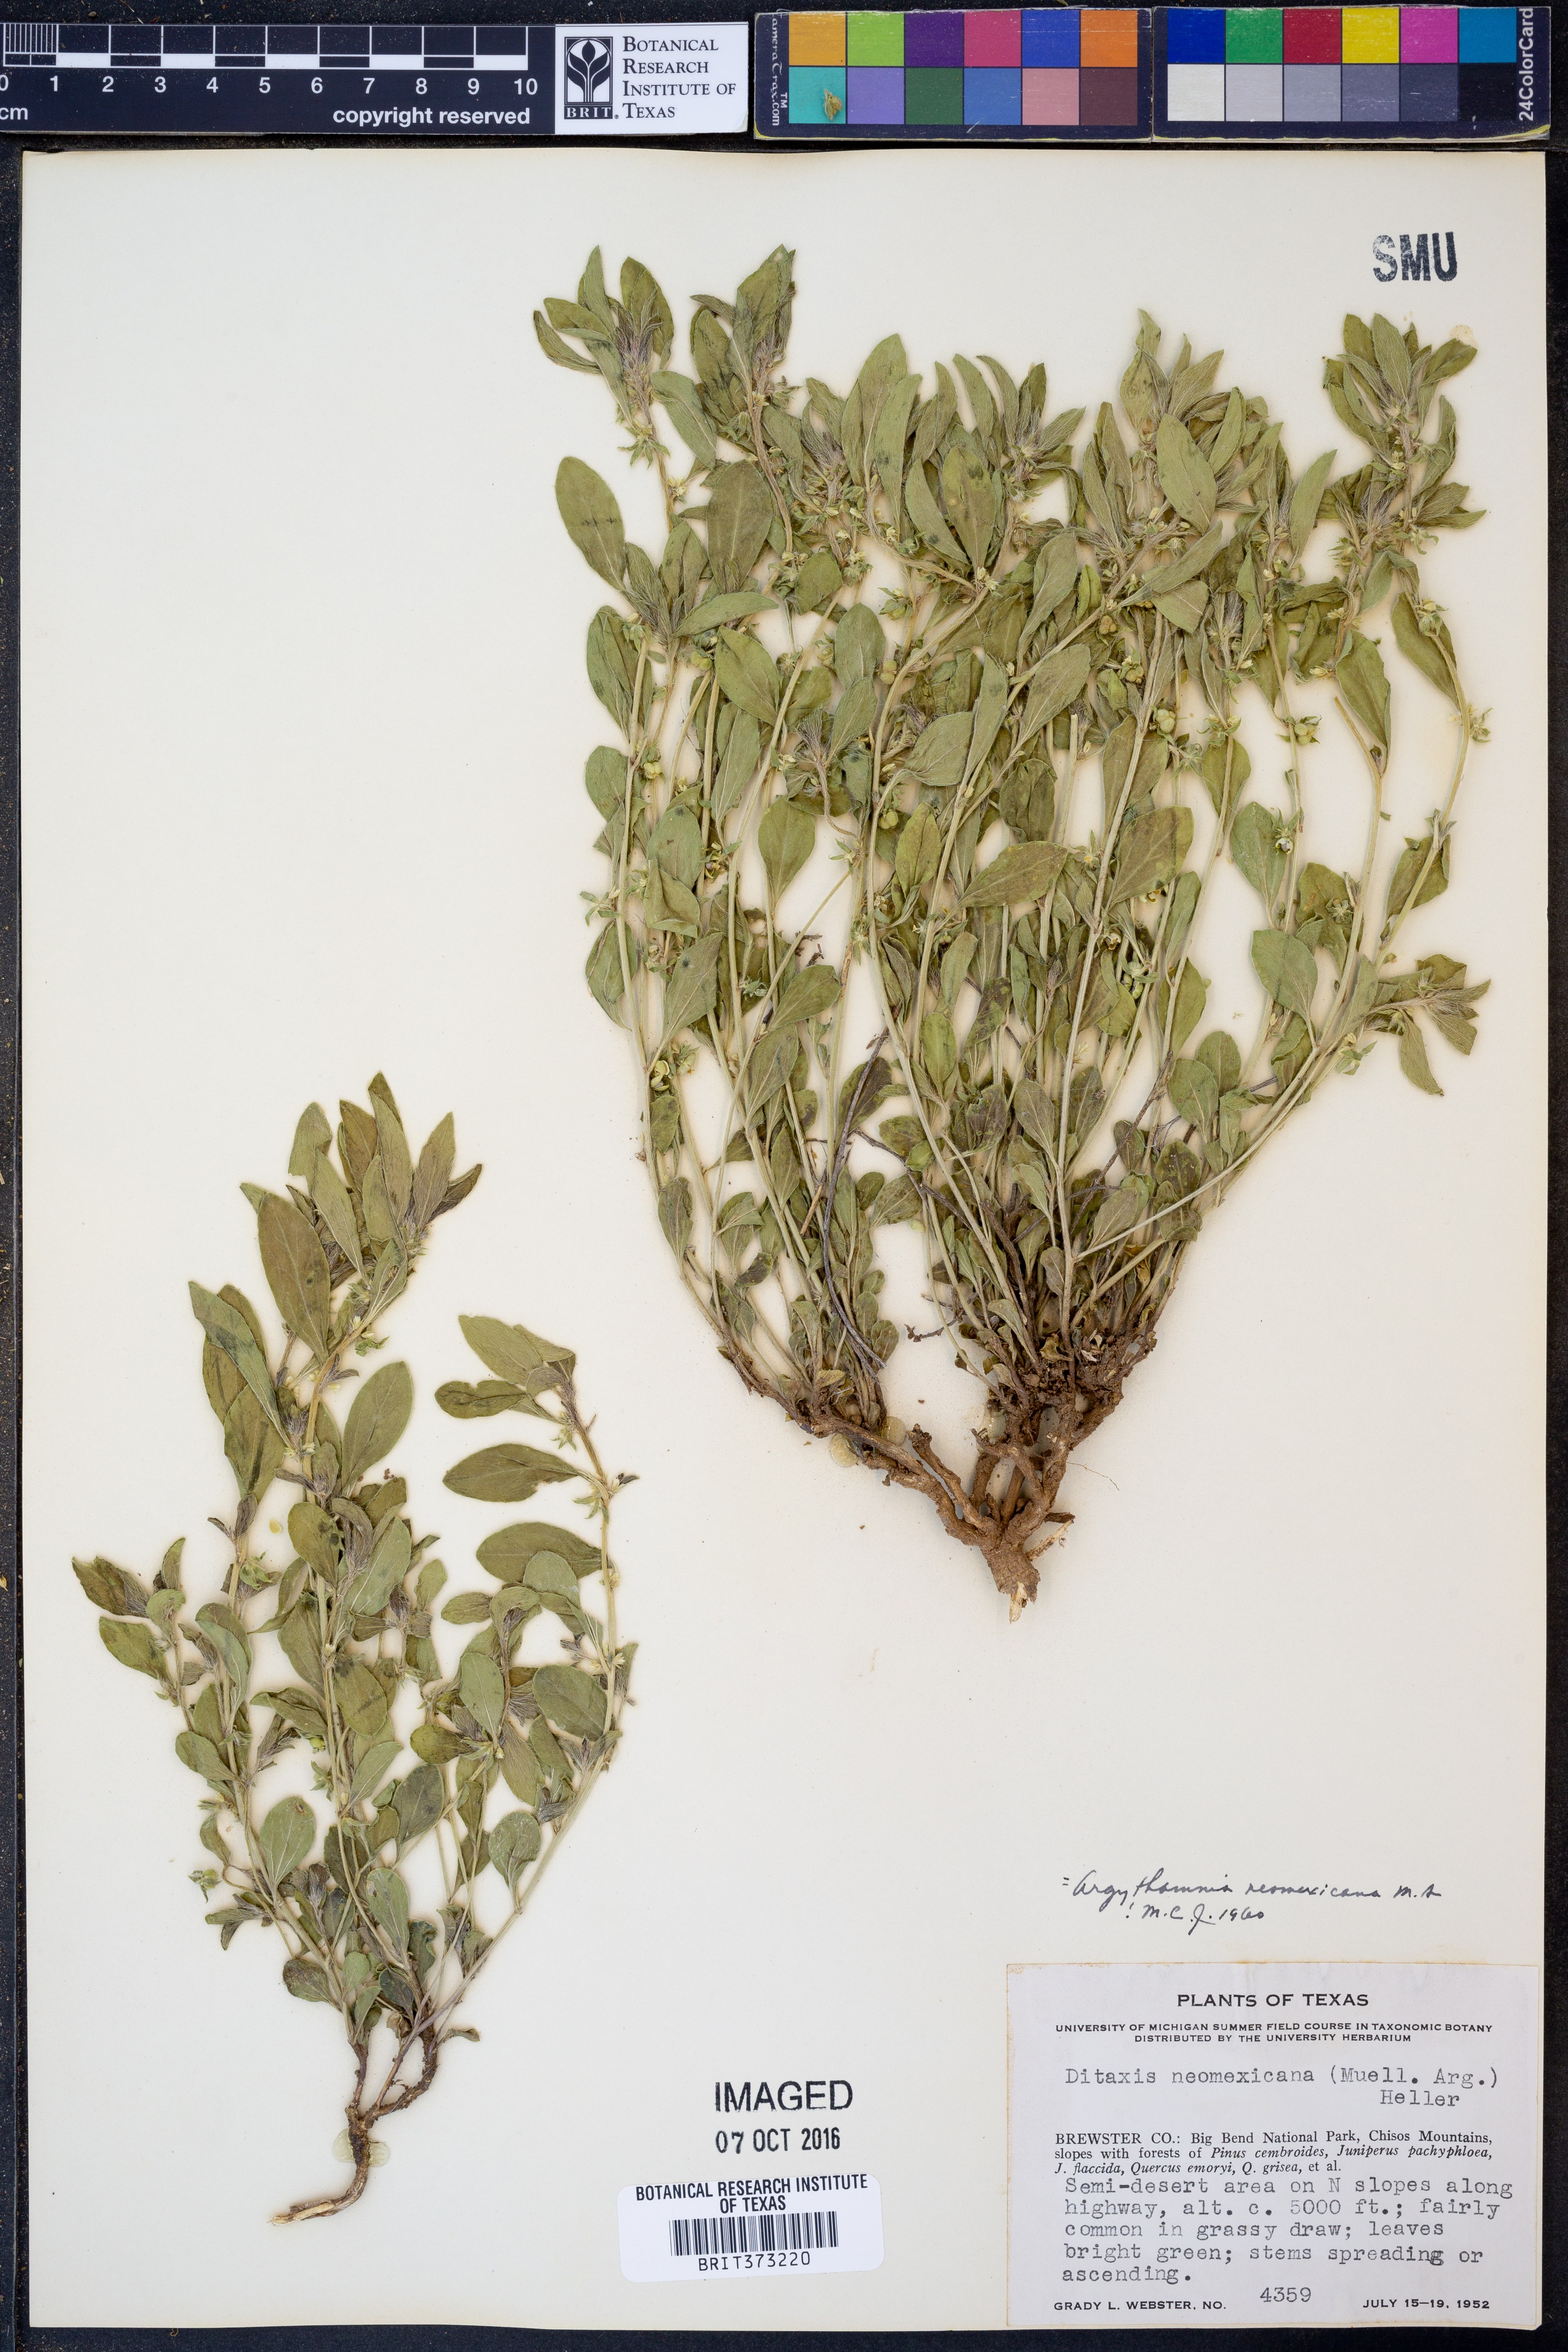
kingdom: Plantae
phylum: Tracheophyta
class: Magnoliopsida
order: Malpighiales
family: Euphorbiaceae
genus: Ditaxis
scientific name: Ditaxis serrata
